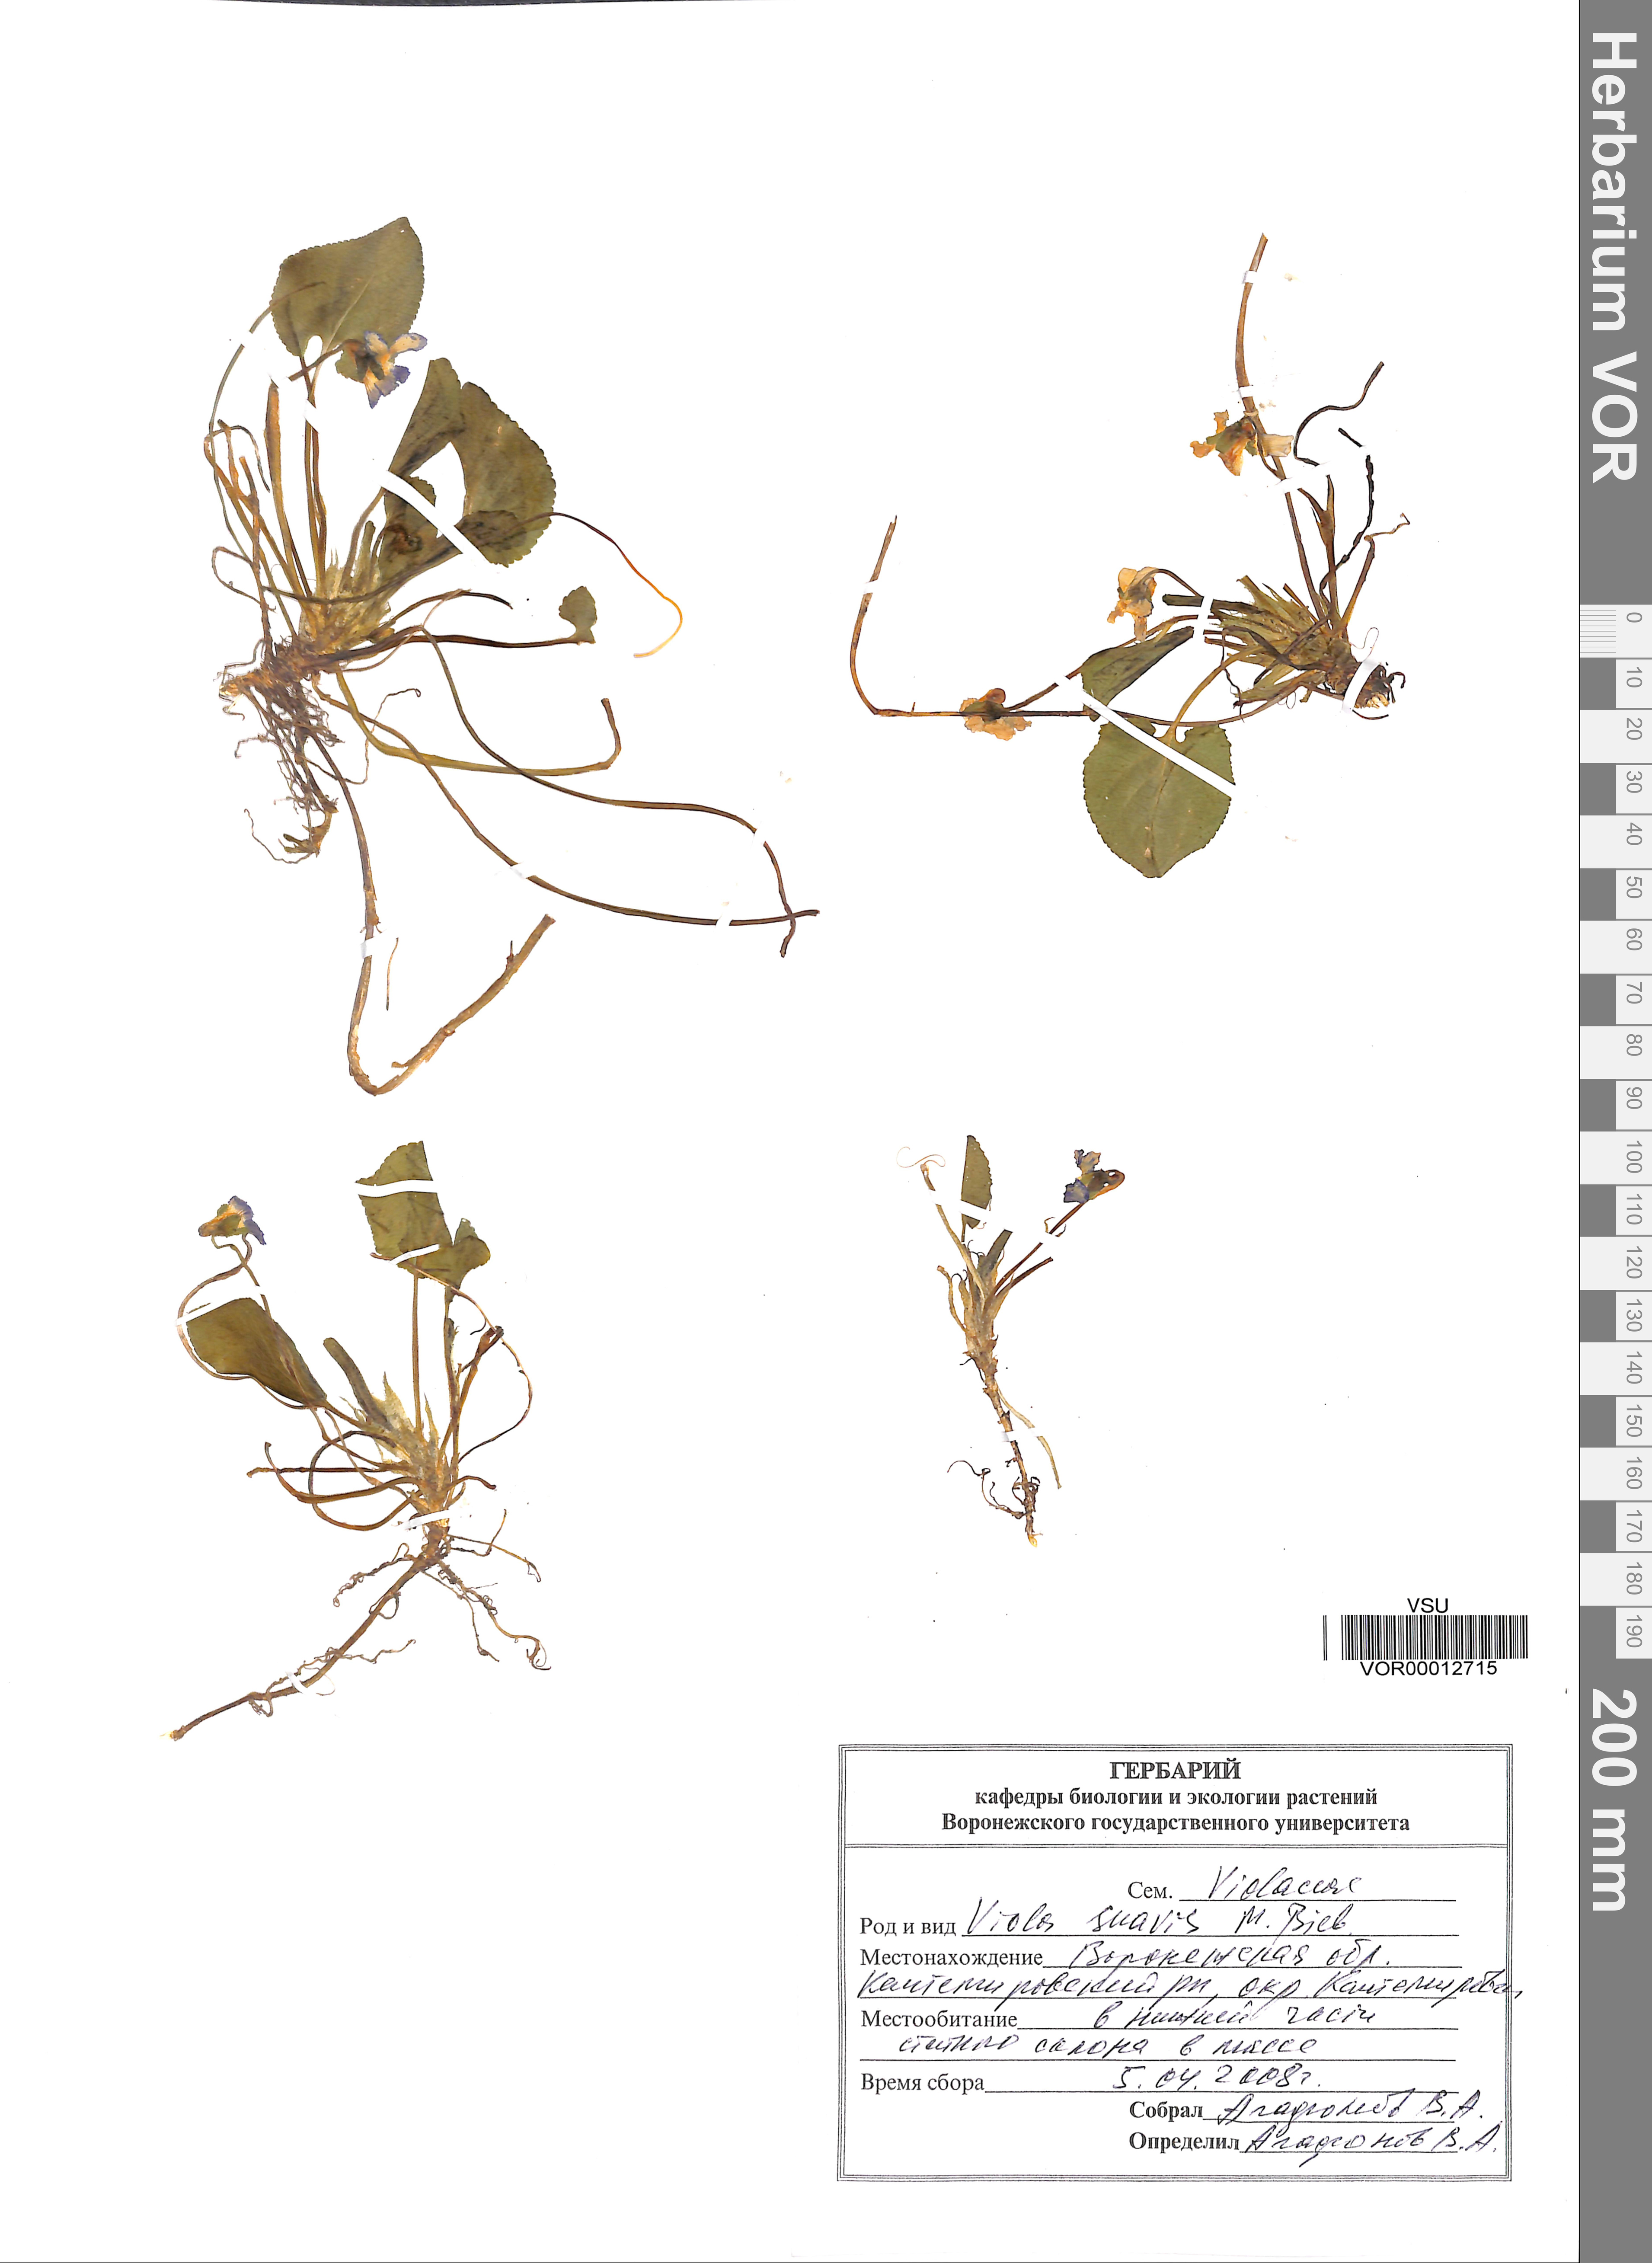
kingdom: Plantae
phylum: Tracheophyta
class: Magnoliopsida
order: Malpighiales
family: Violaceae
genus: Viola
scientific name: Viola suavis
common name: Russian violet
